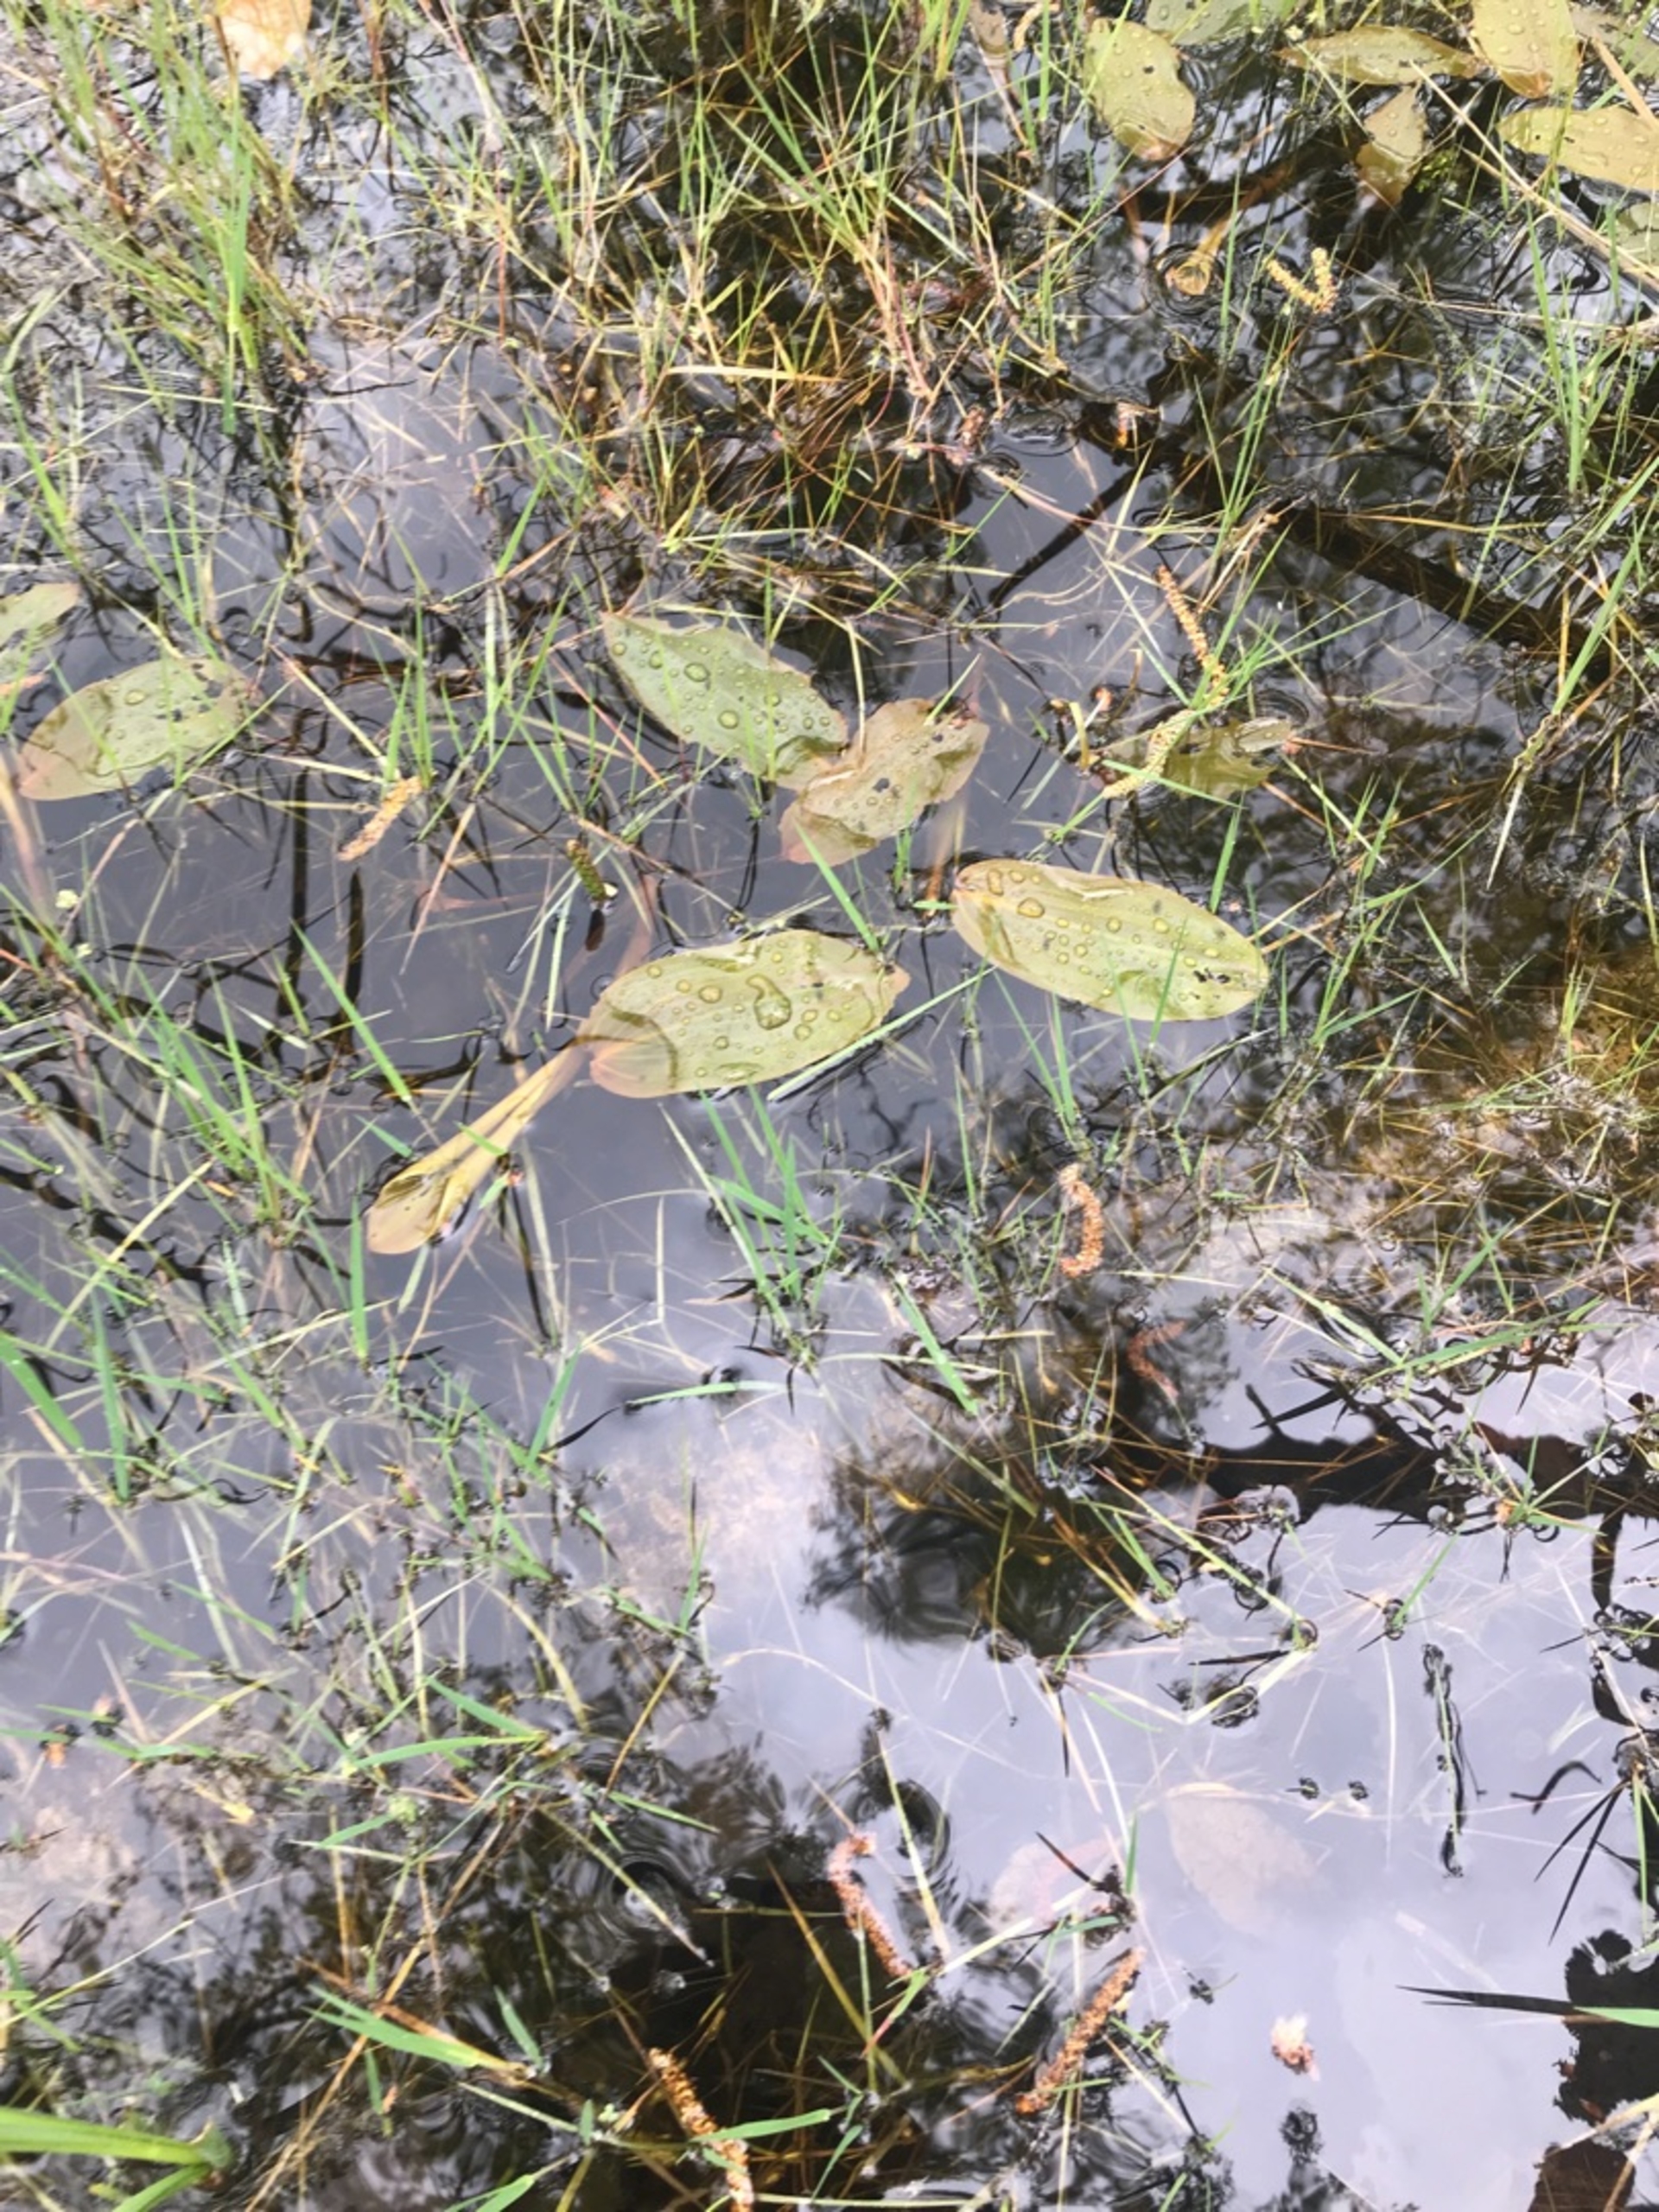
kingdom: Plantae
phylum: Tracheophyta
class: Liliopsida
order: Alismatales
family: Potamogetonaceae
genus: Potamogeton
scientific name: Potamogeton natans
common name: Svømmende vandaks
